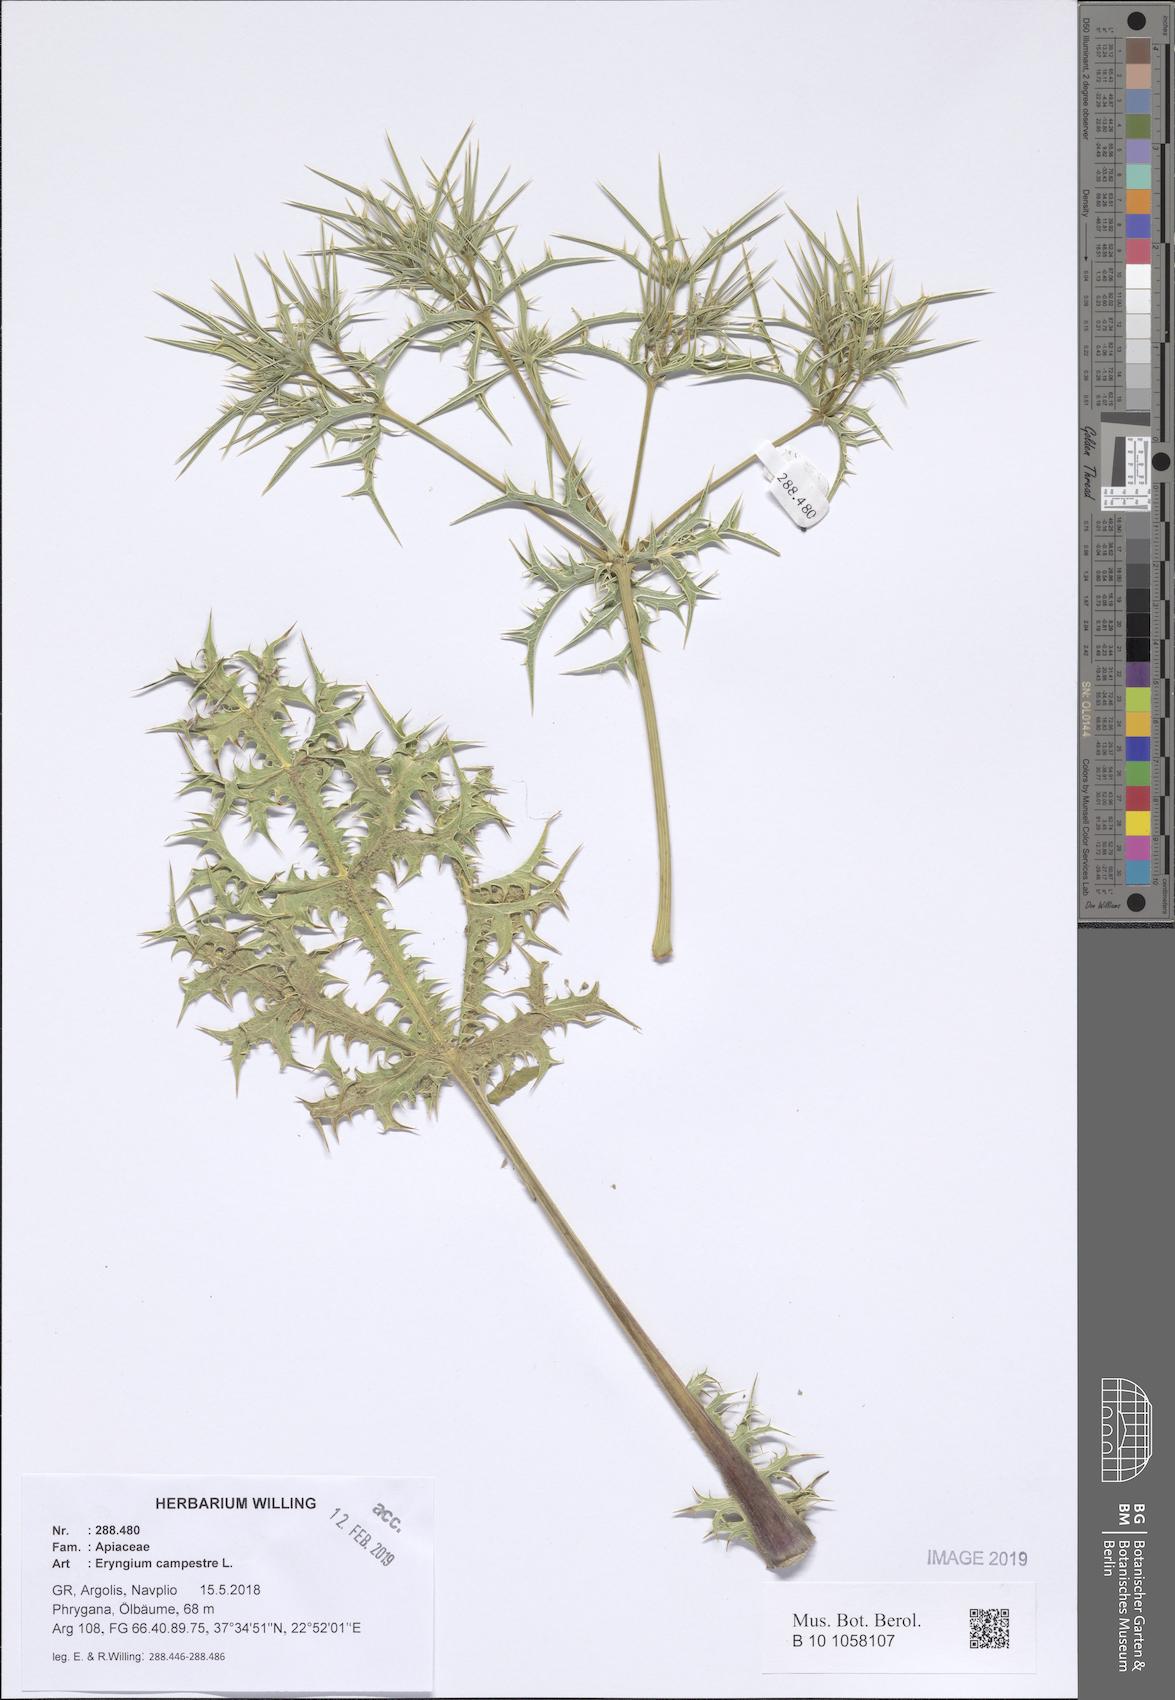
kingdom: Plantae
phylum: Tracheophyta
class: Magnoliopsida
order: Apiales
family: Apiaceae
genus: Eryngium
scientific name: Eryngium campestre
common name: Field eryngo
